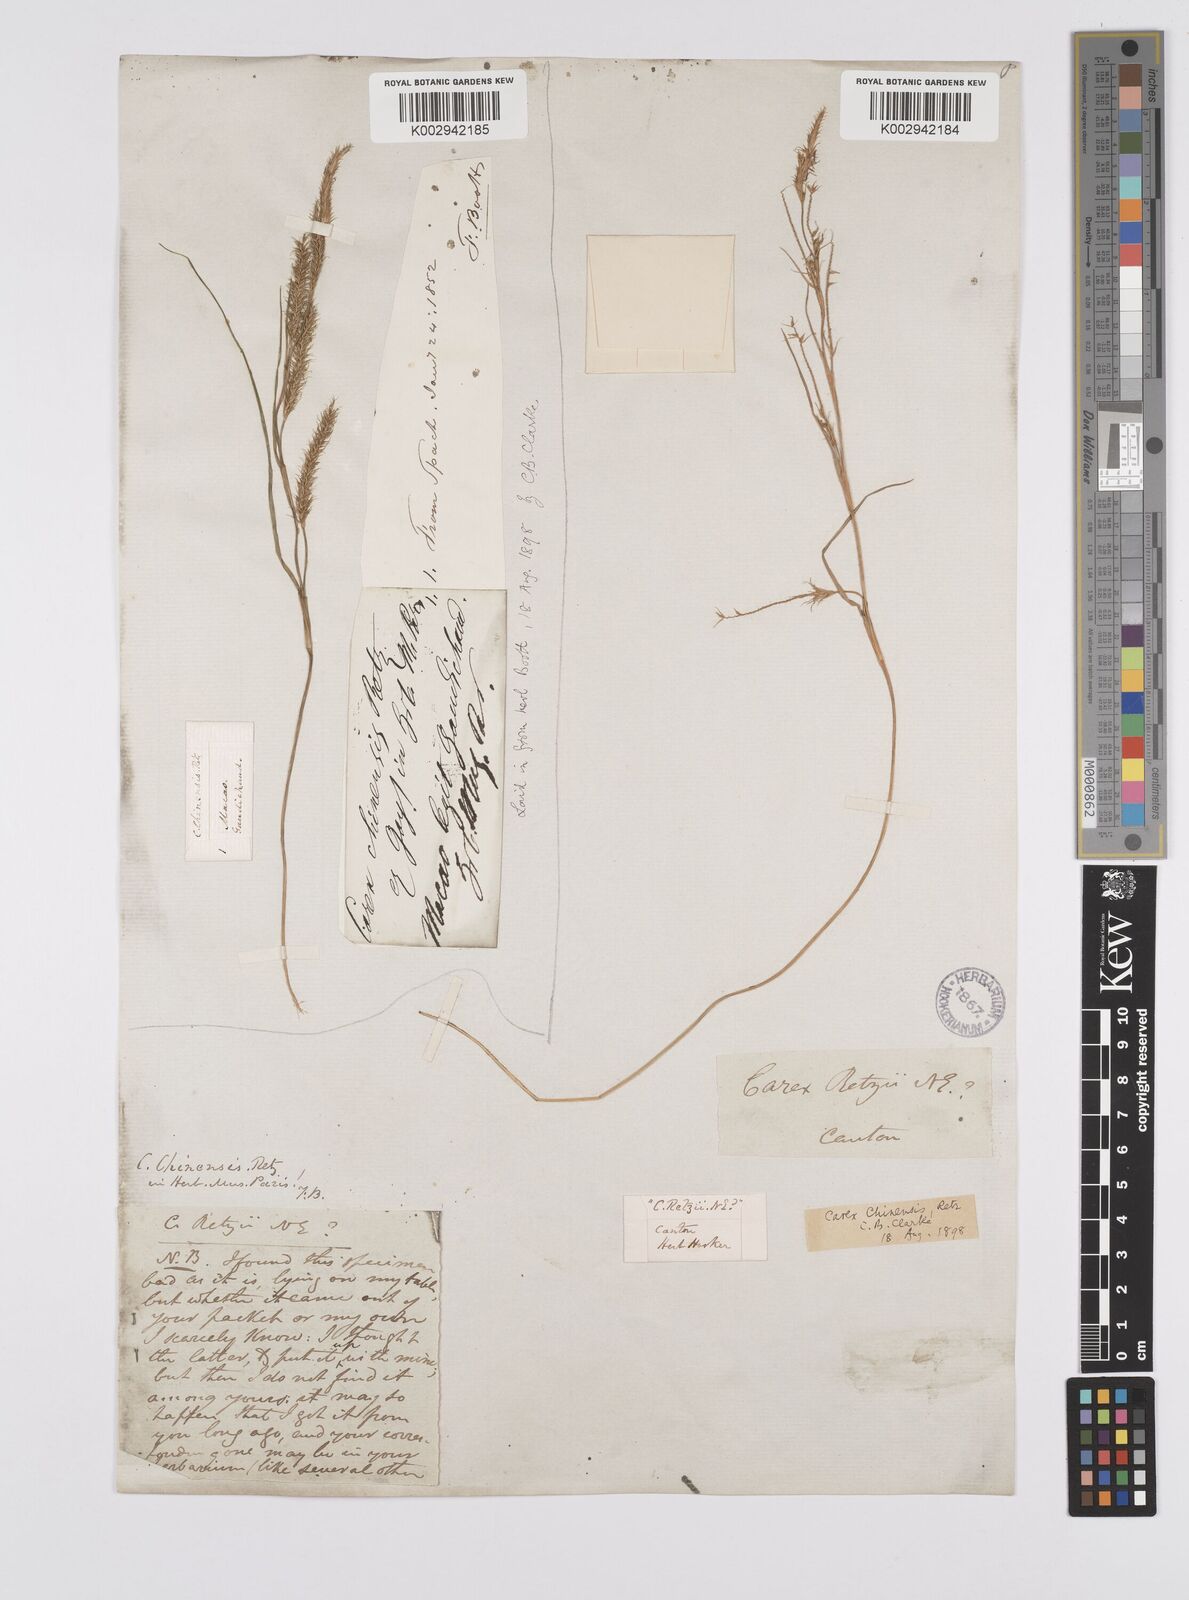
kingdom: Plantae
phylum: Tracheophyta
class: Liliopsida
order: Poales
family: Cyperaceae
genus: Carex
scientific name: Carex chinensis
